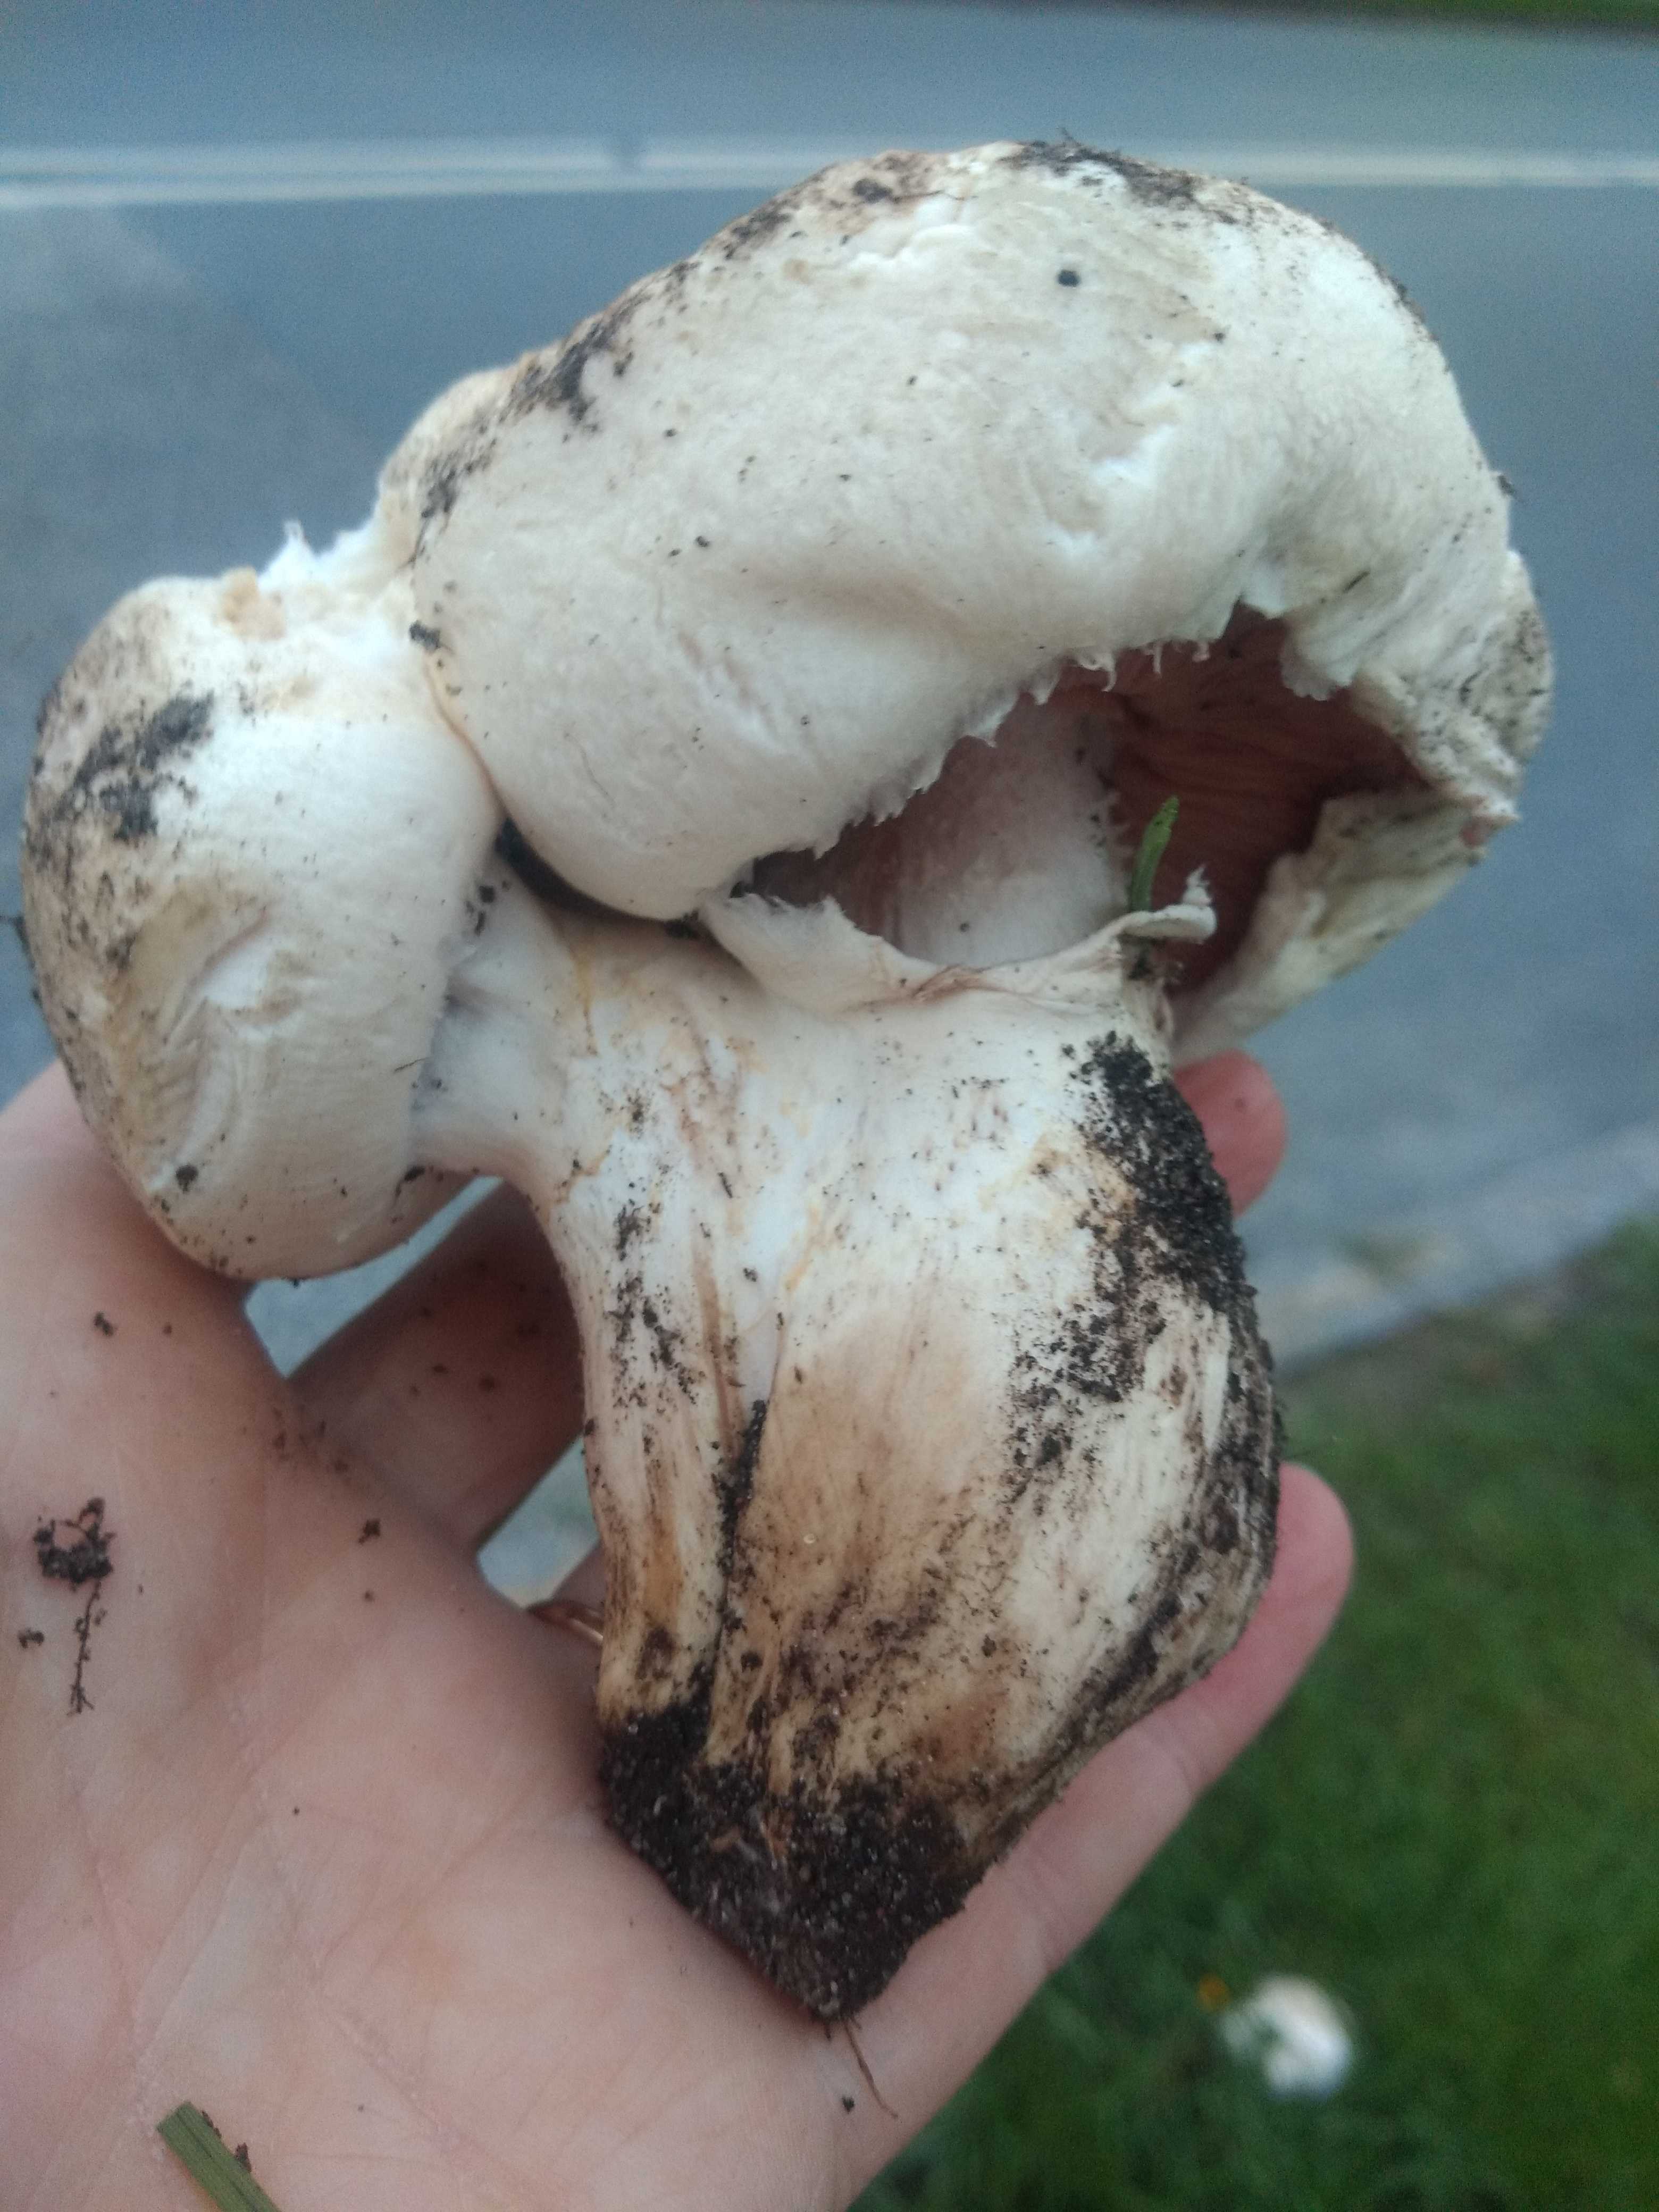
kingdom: Fungi
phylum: Basidiomycota
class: Agaricomycetes
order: Agaricales
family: Agaricaceae
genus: Agaricus
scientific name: Agaricus
